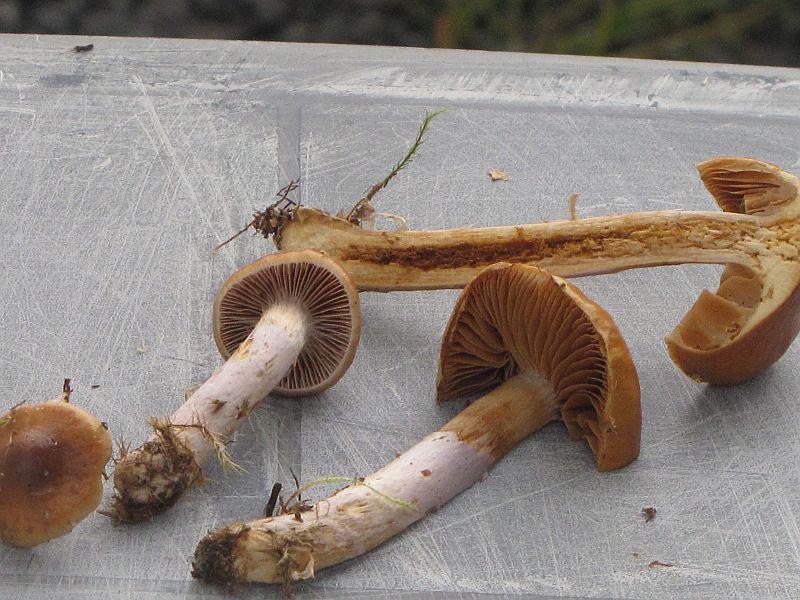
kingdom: Fungi
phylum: Basidiomycota
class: Agaricomycetes
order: Agaricales
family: Cortinariaceae
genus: Cortinarius
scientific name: Cortinarius collinitus
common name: spættet slørhat
